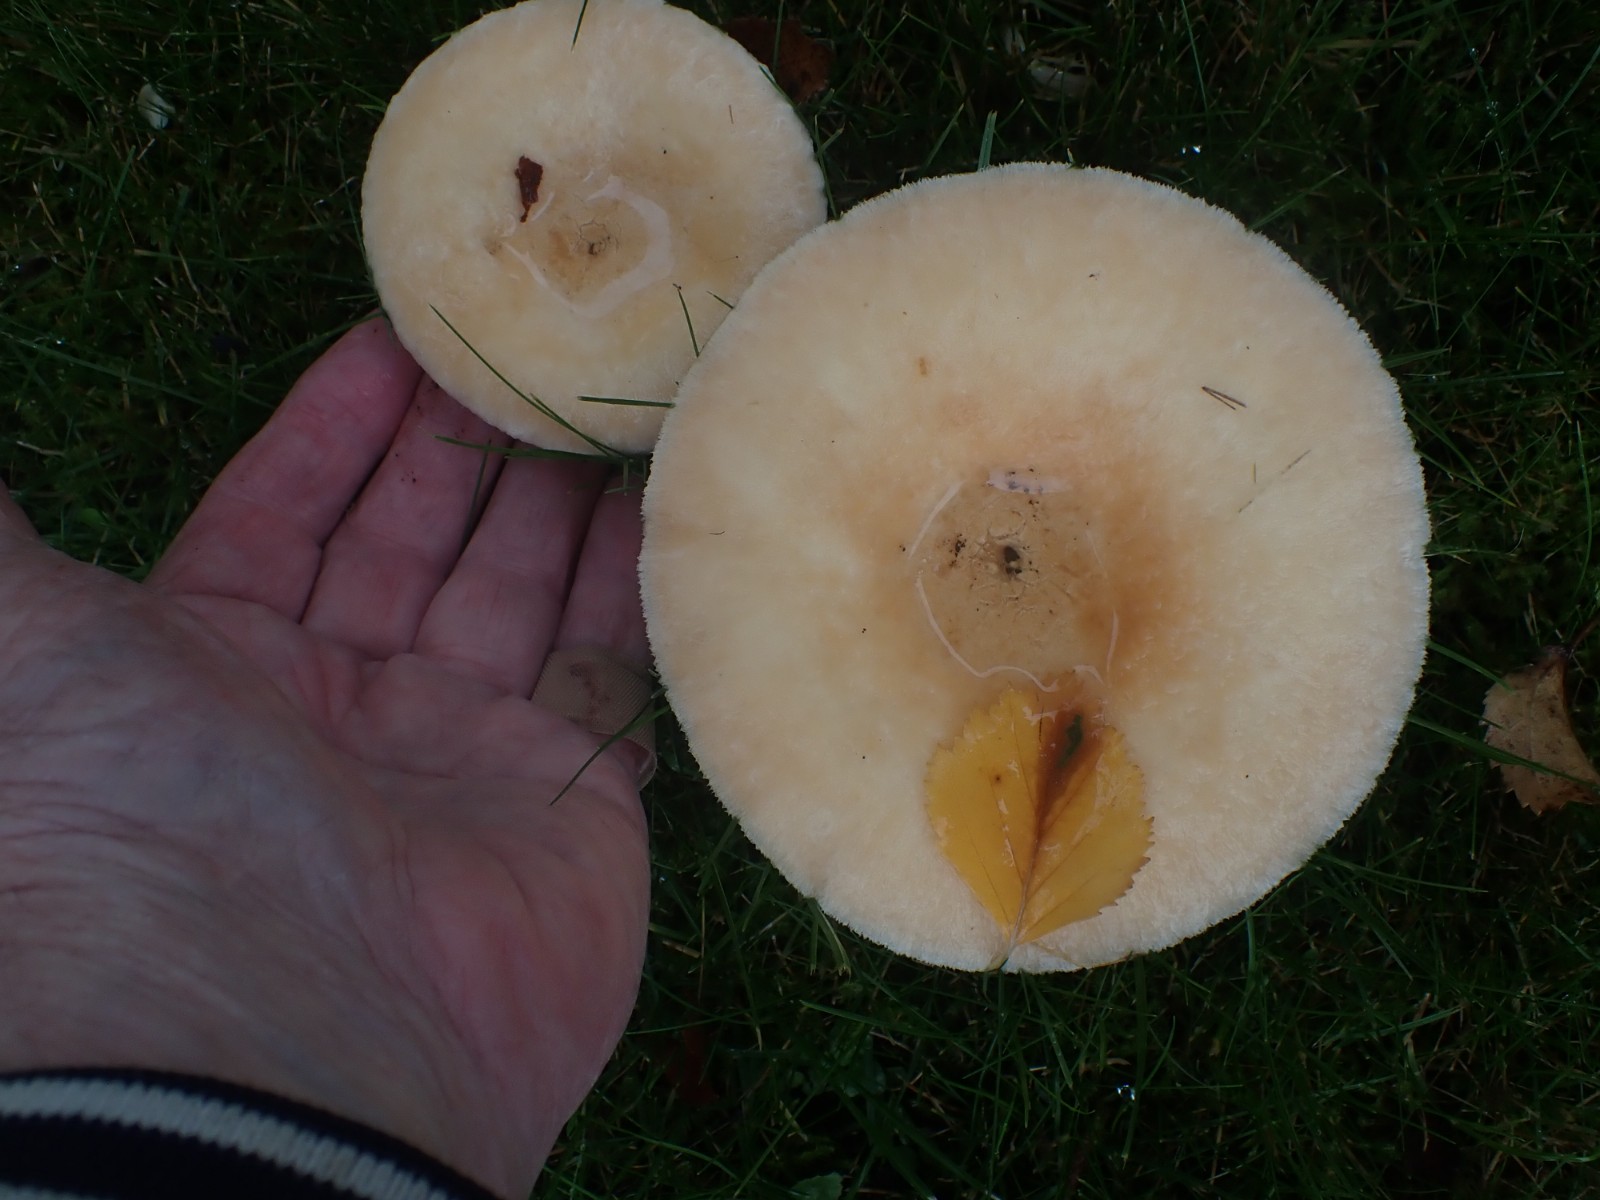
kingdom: Fungi
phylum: Basidiomycota
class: Agaricomycetes
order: Russulales
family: Russulaceae
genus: Lactarius
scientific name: Lactarius pubescens
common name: dunet mælkehat
